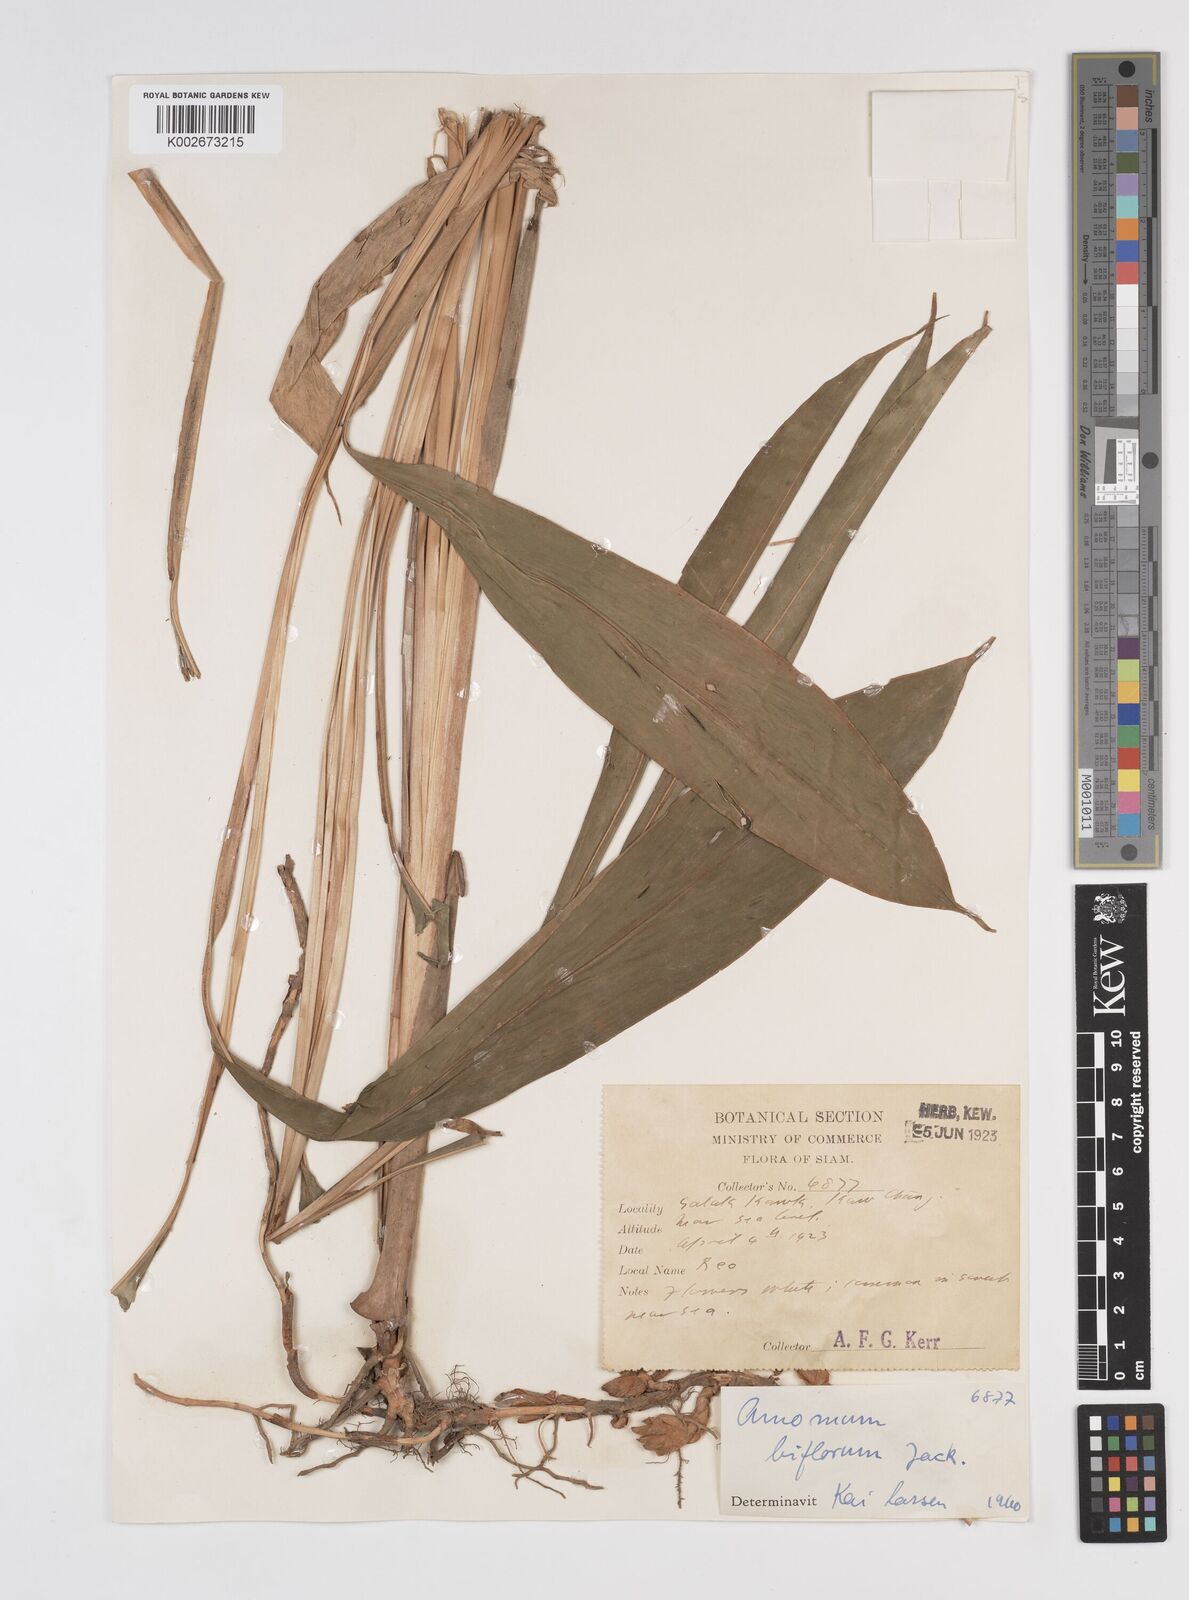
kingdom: Plantae
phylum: Tracheophyta
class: Liliopsida
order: Zingiberales
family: Zingiberaceae
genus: Wurfbainia
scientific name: Wurfbainia biflora
